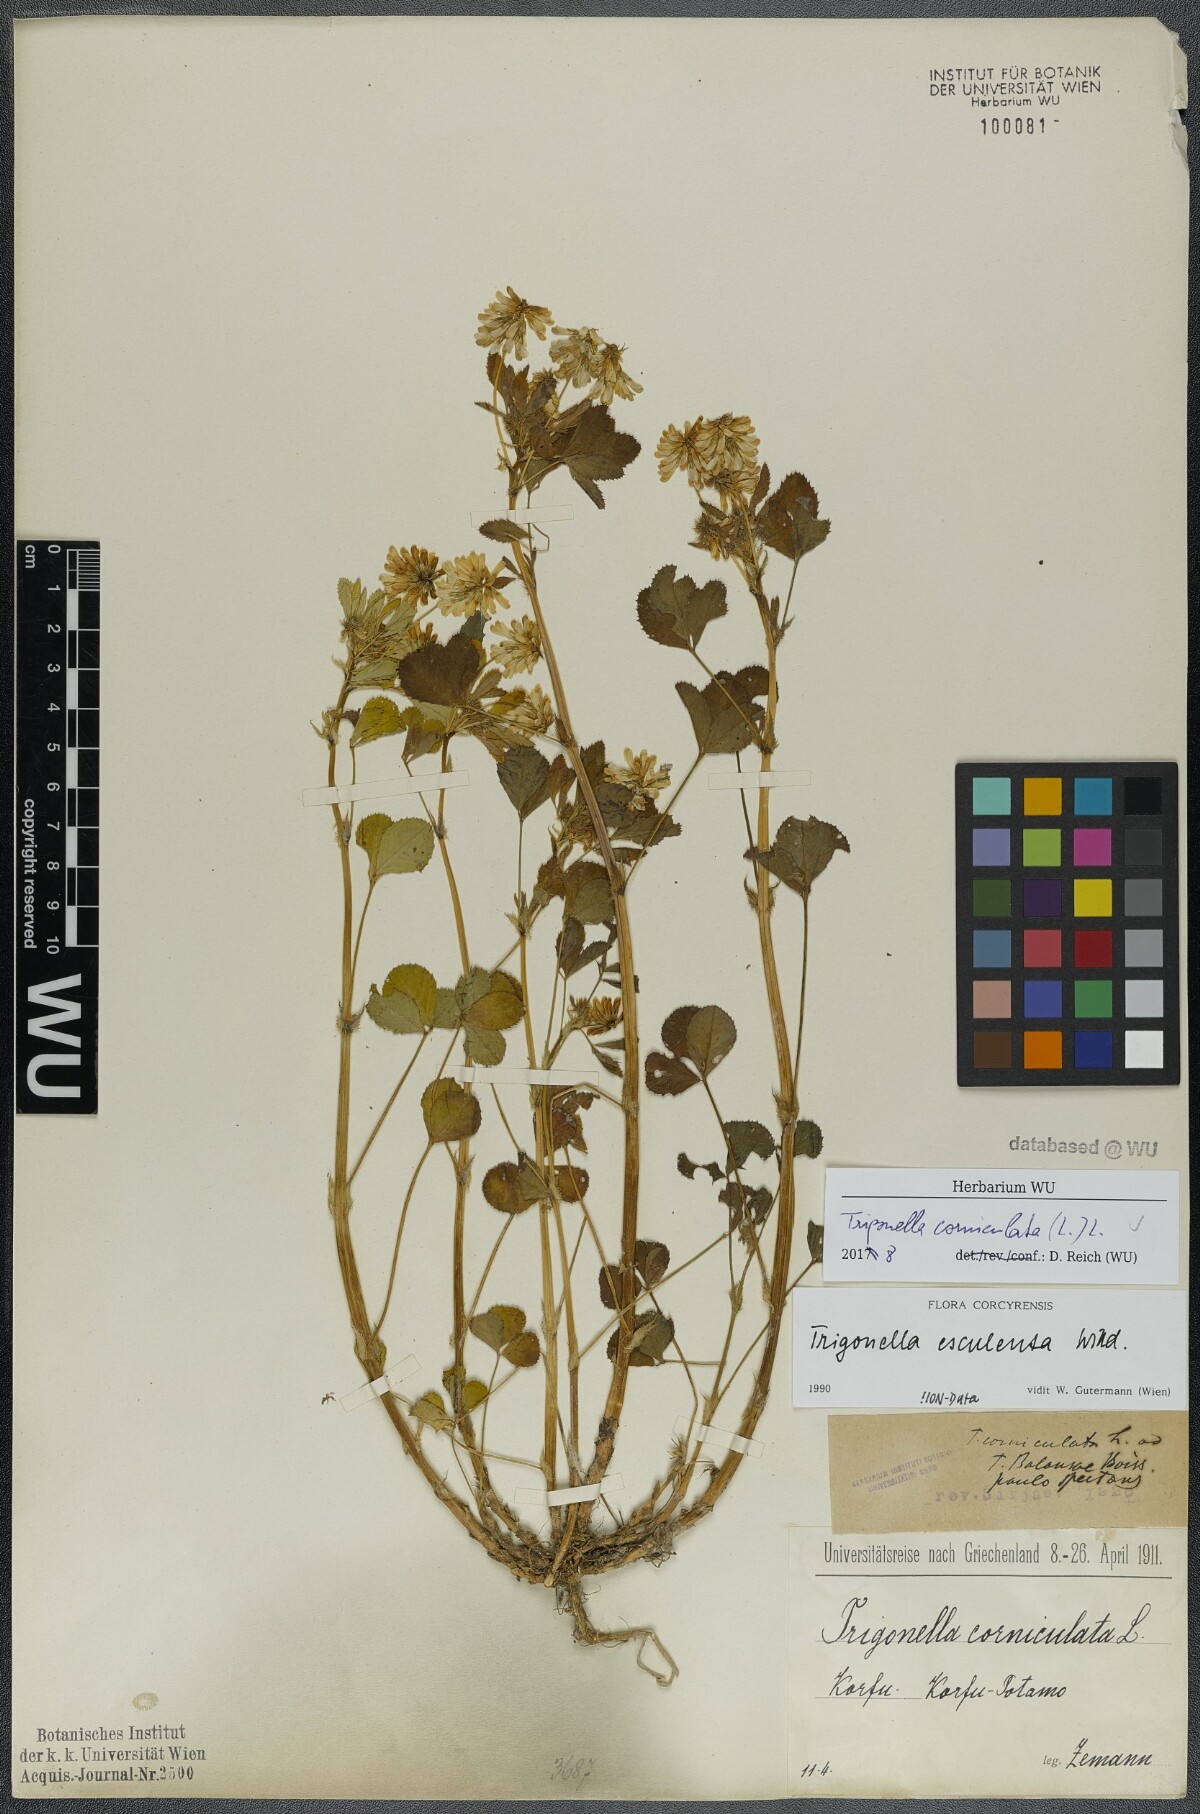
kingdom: Plantae
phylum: Tracheophyta
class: Magnoliopsida
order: Fabales
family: Fabaceae
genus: Trigonella
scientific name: Trigonella balansae
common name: Sickle-fruited fenugreek
